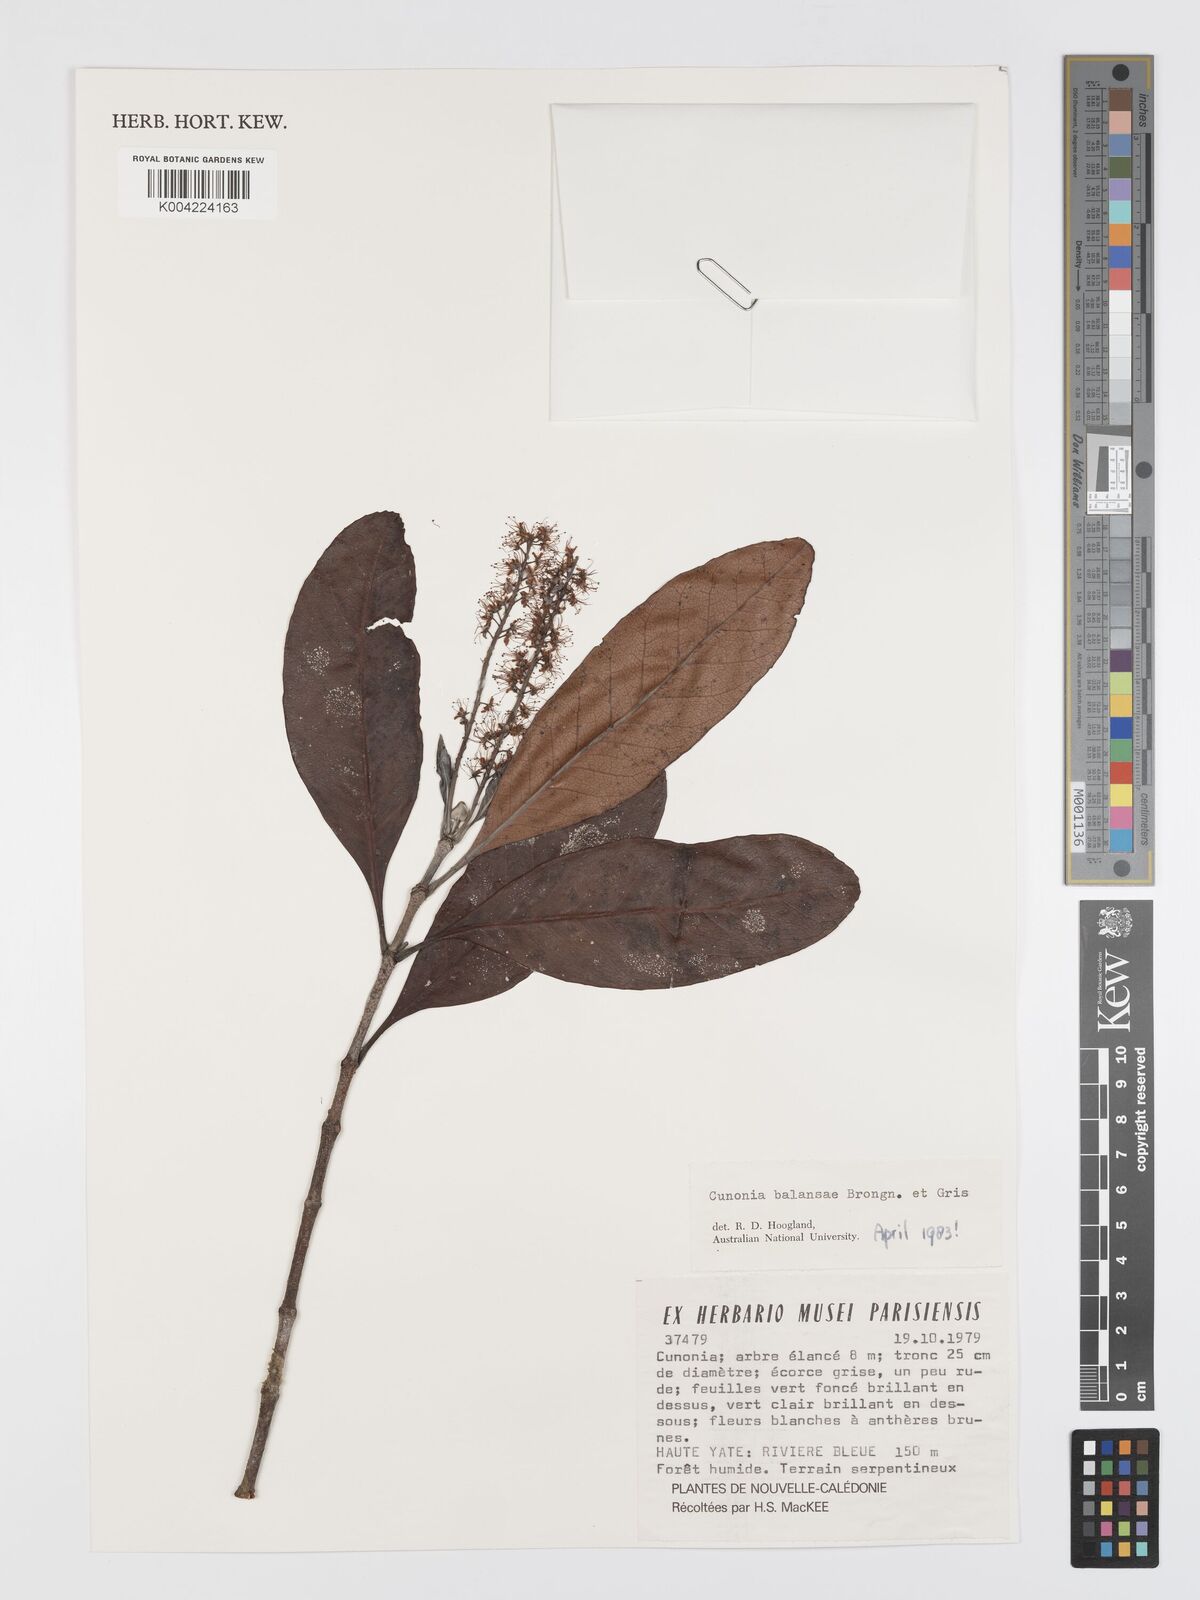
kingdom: Plantae
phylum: Tracheophyta
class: Magnoliopsida
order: Oxalidales
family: Cunoniaceae
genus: Cunonia
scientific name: Cunonia balansae
